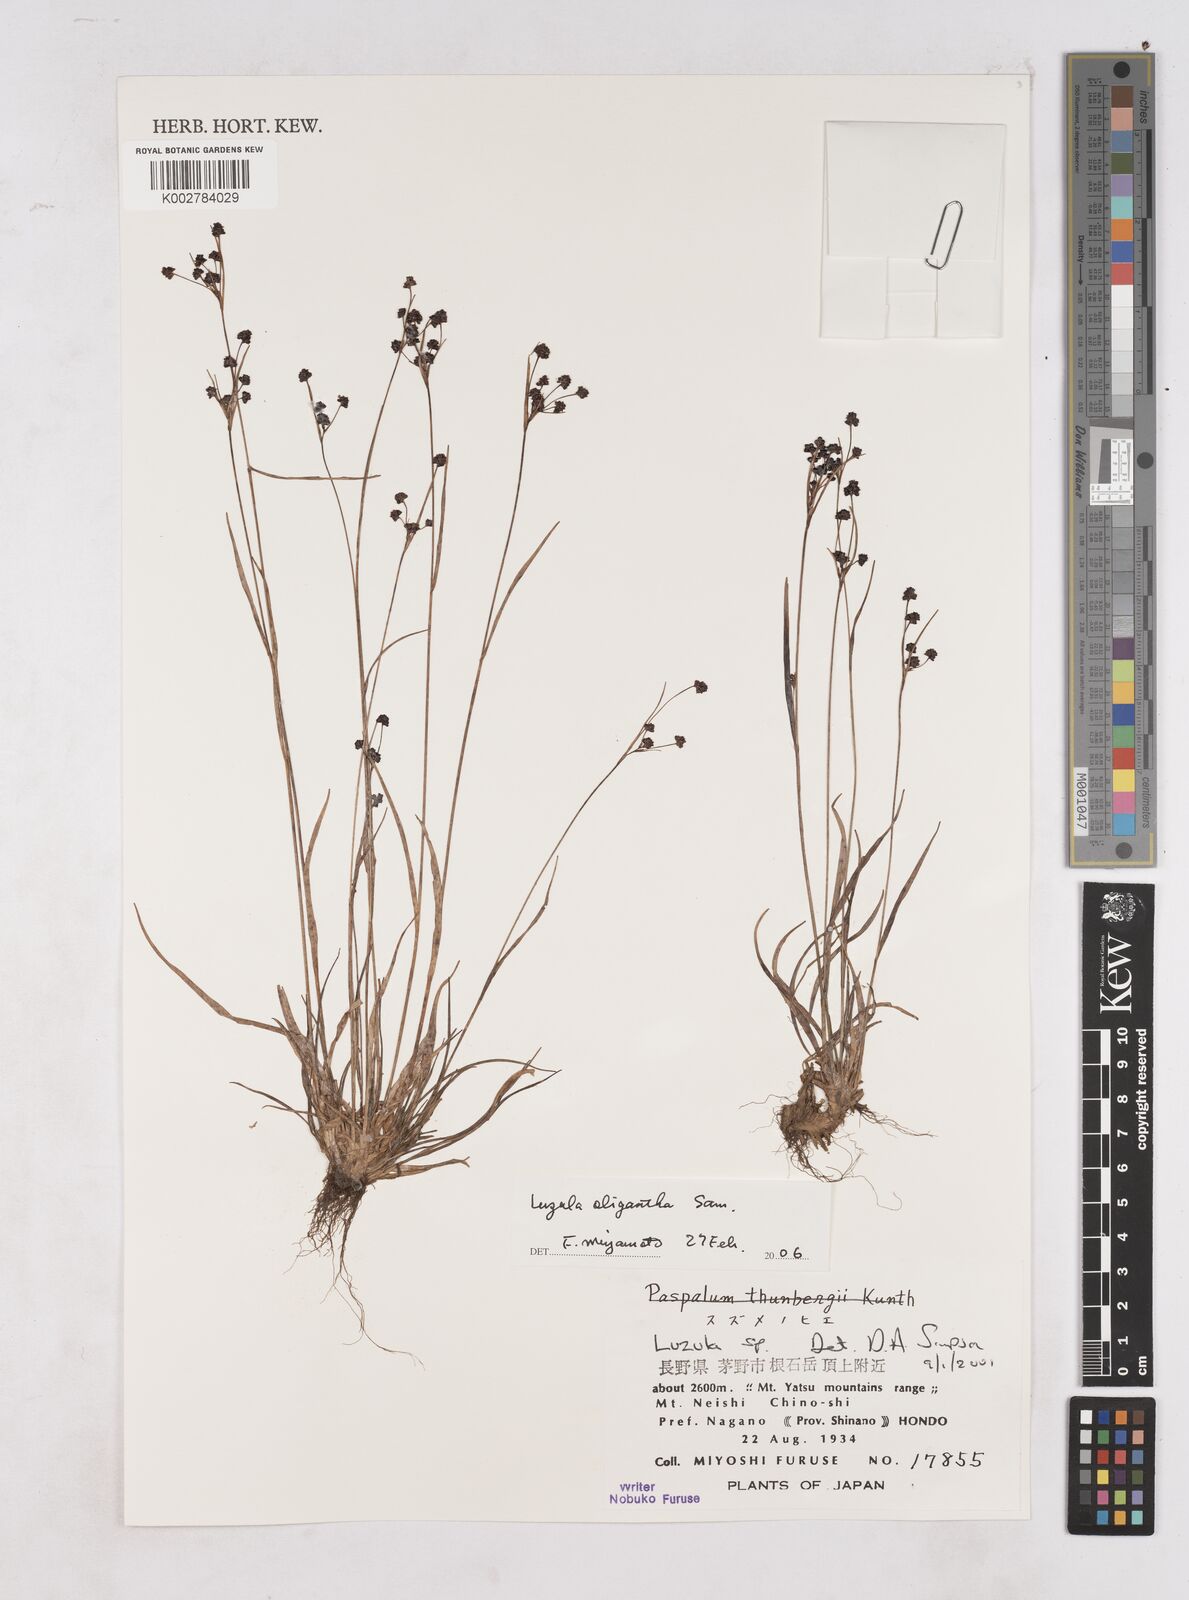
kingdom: Plantae
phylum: Tracheophyta
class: Liliopsida
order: Poales
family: Juncaceae
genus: Luzula
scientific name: Luzula oligantha
